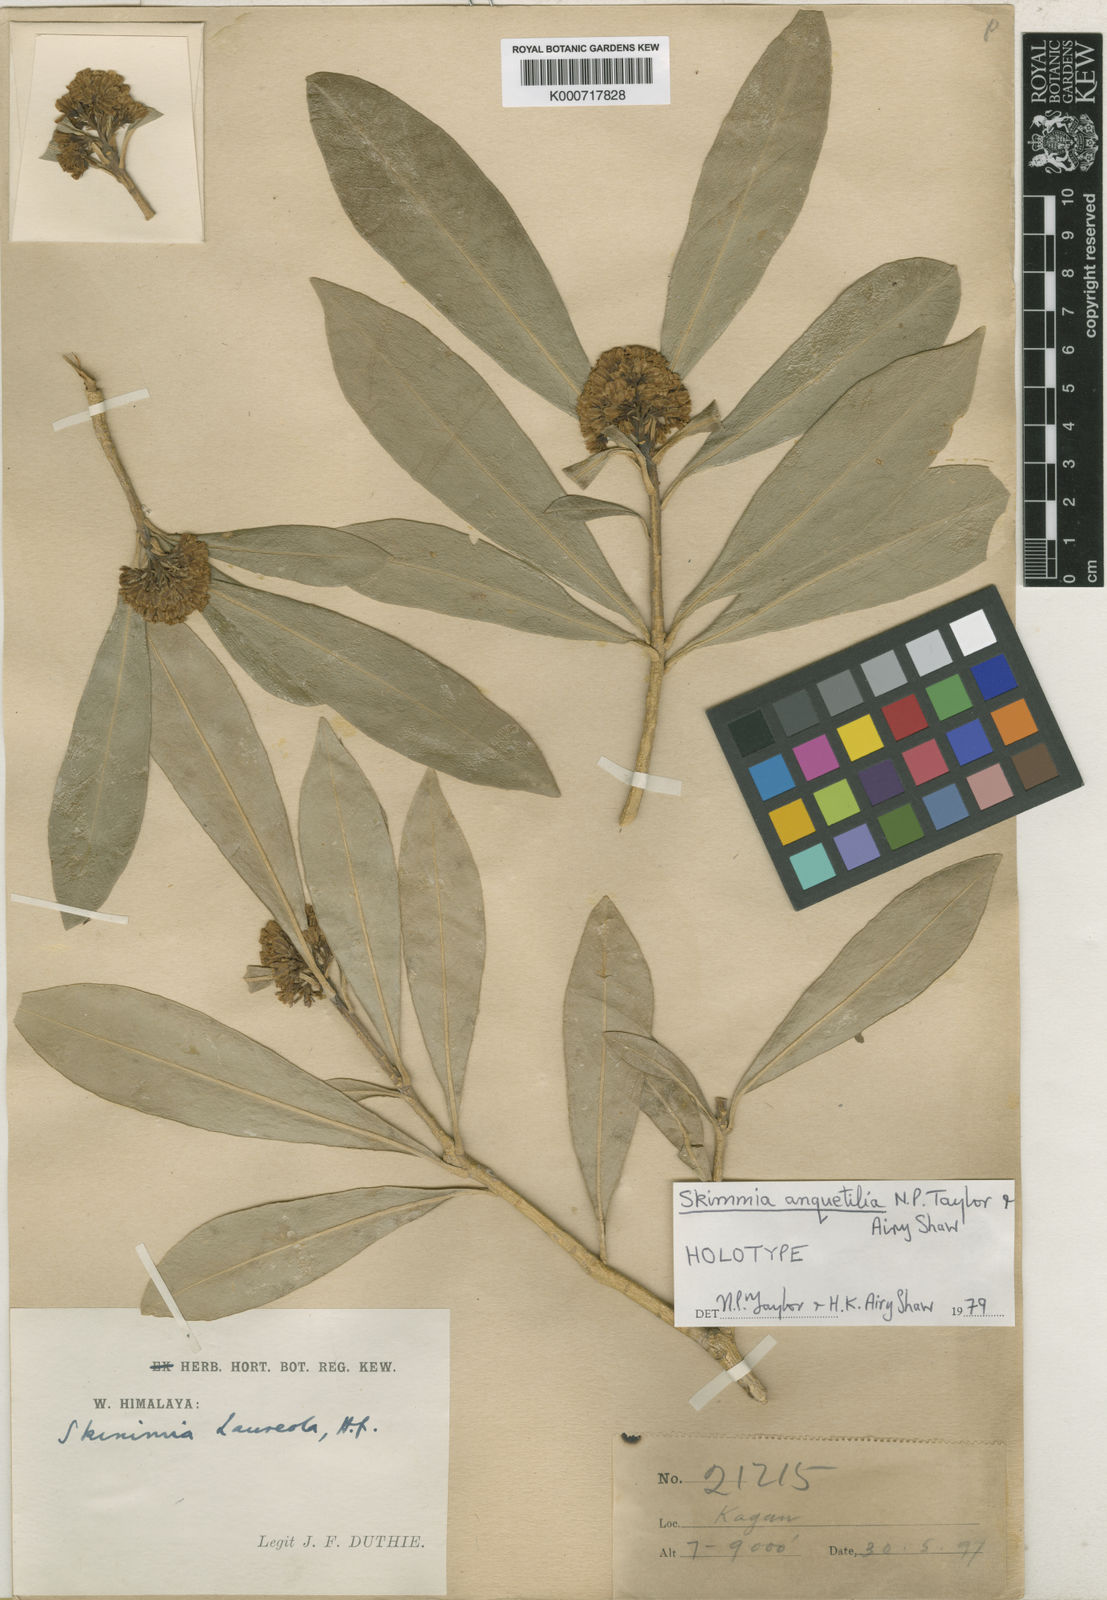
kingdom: Plantae
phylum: Tracheophyta
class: Magnoliopsida
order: Sapindales
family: Rutaceae
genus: Skimmia
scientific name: Skimmia anquetilia
